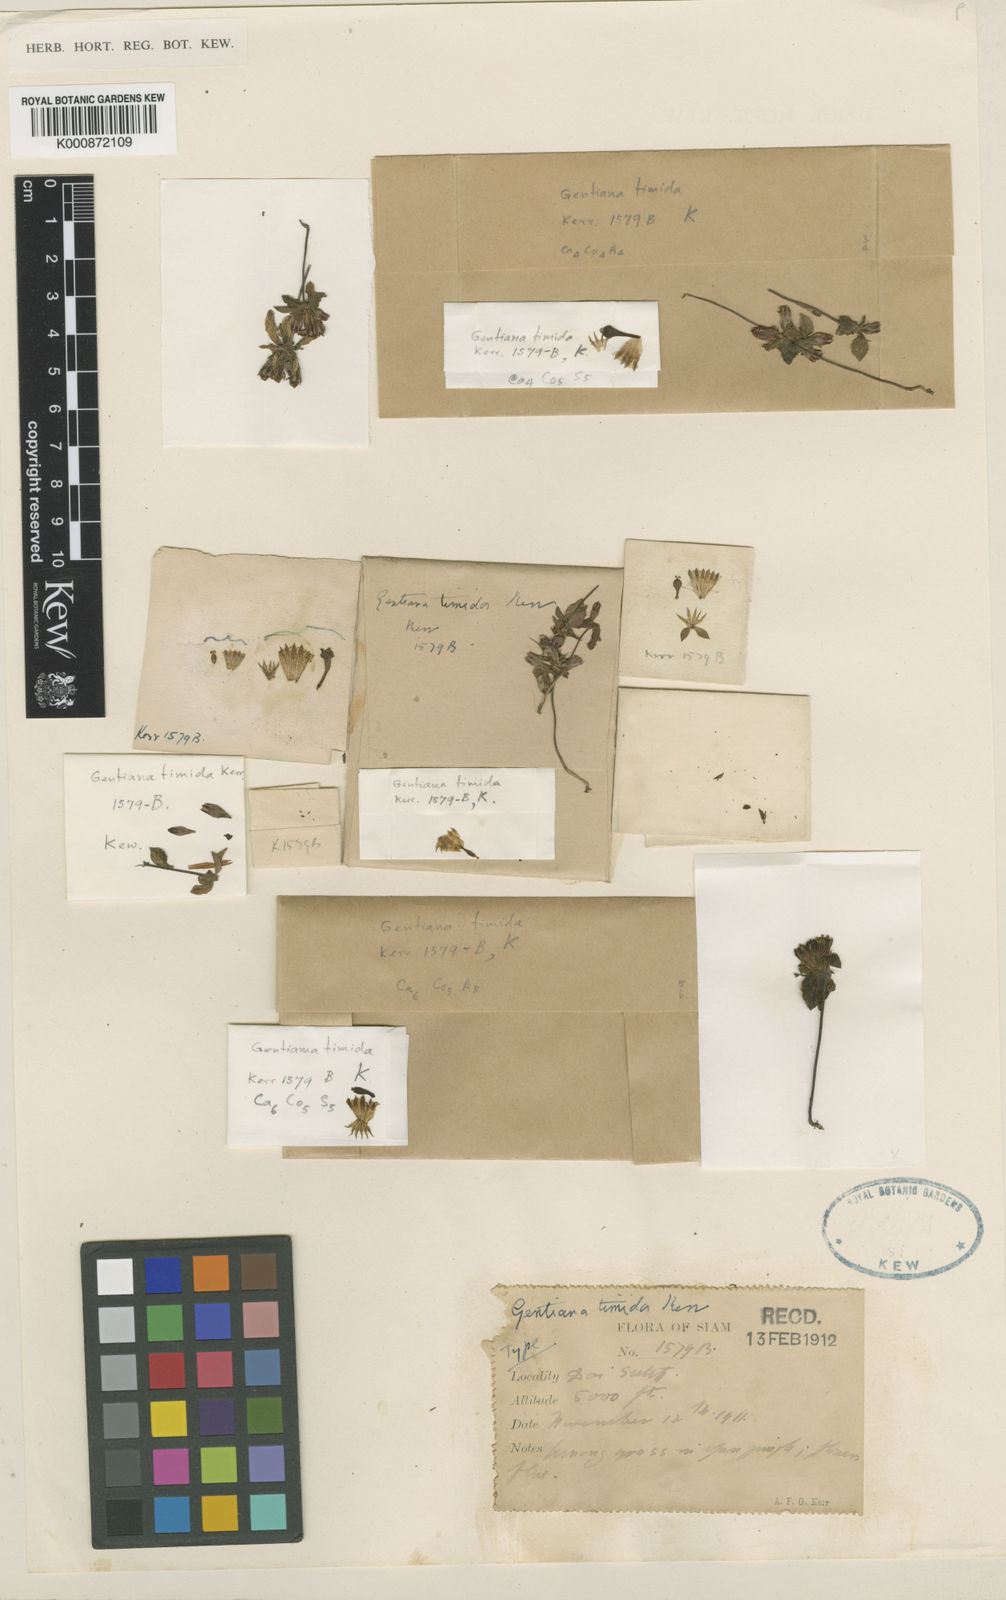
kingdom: Plantae
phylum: Tracheophyta
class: Magnoliopsida
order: Gentianales
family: Gentianaceae
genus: Gentiana
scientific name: Gentiana timida
